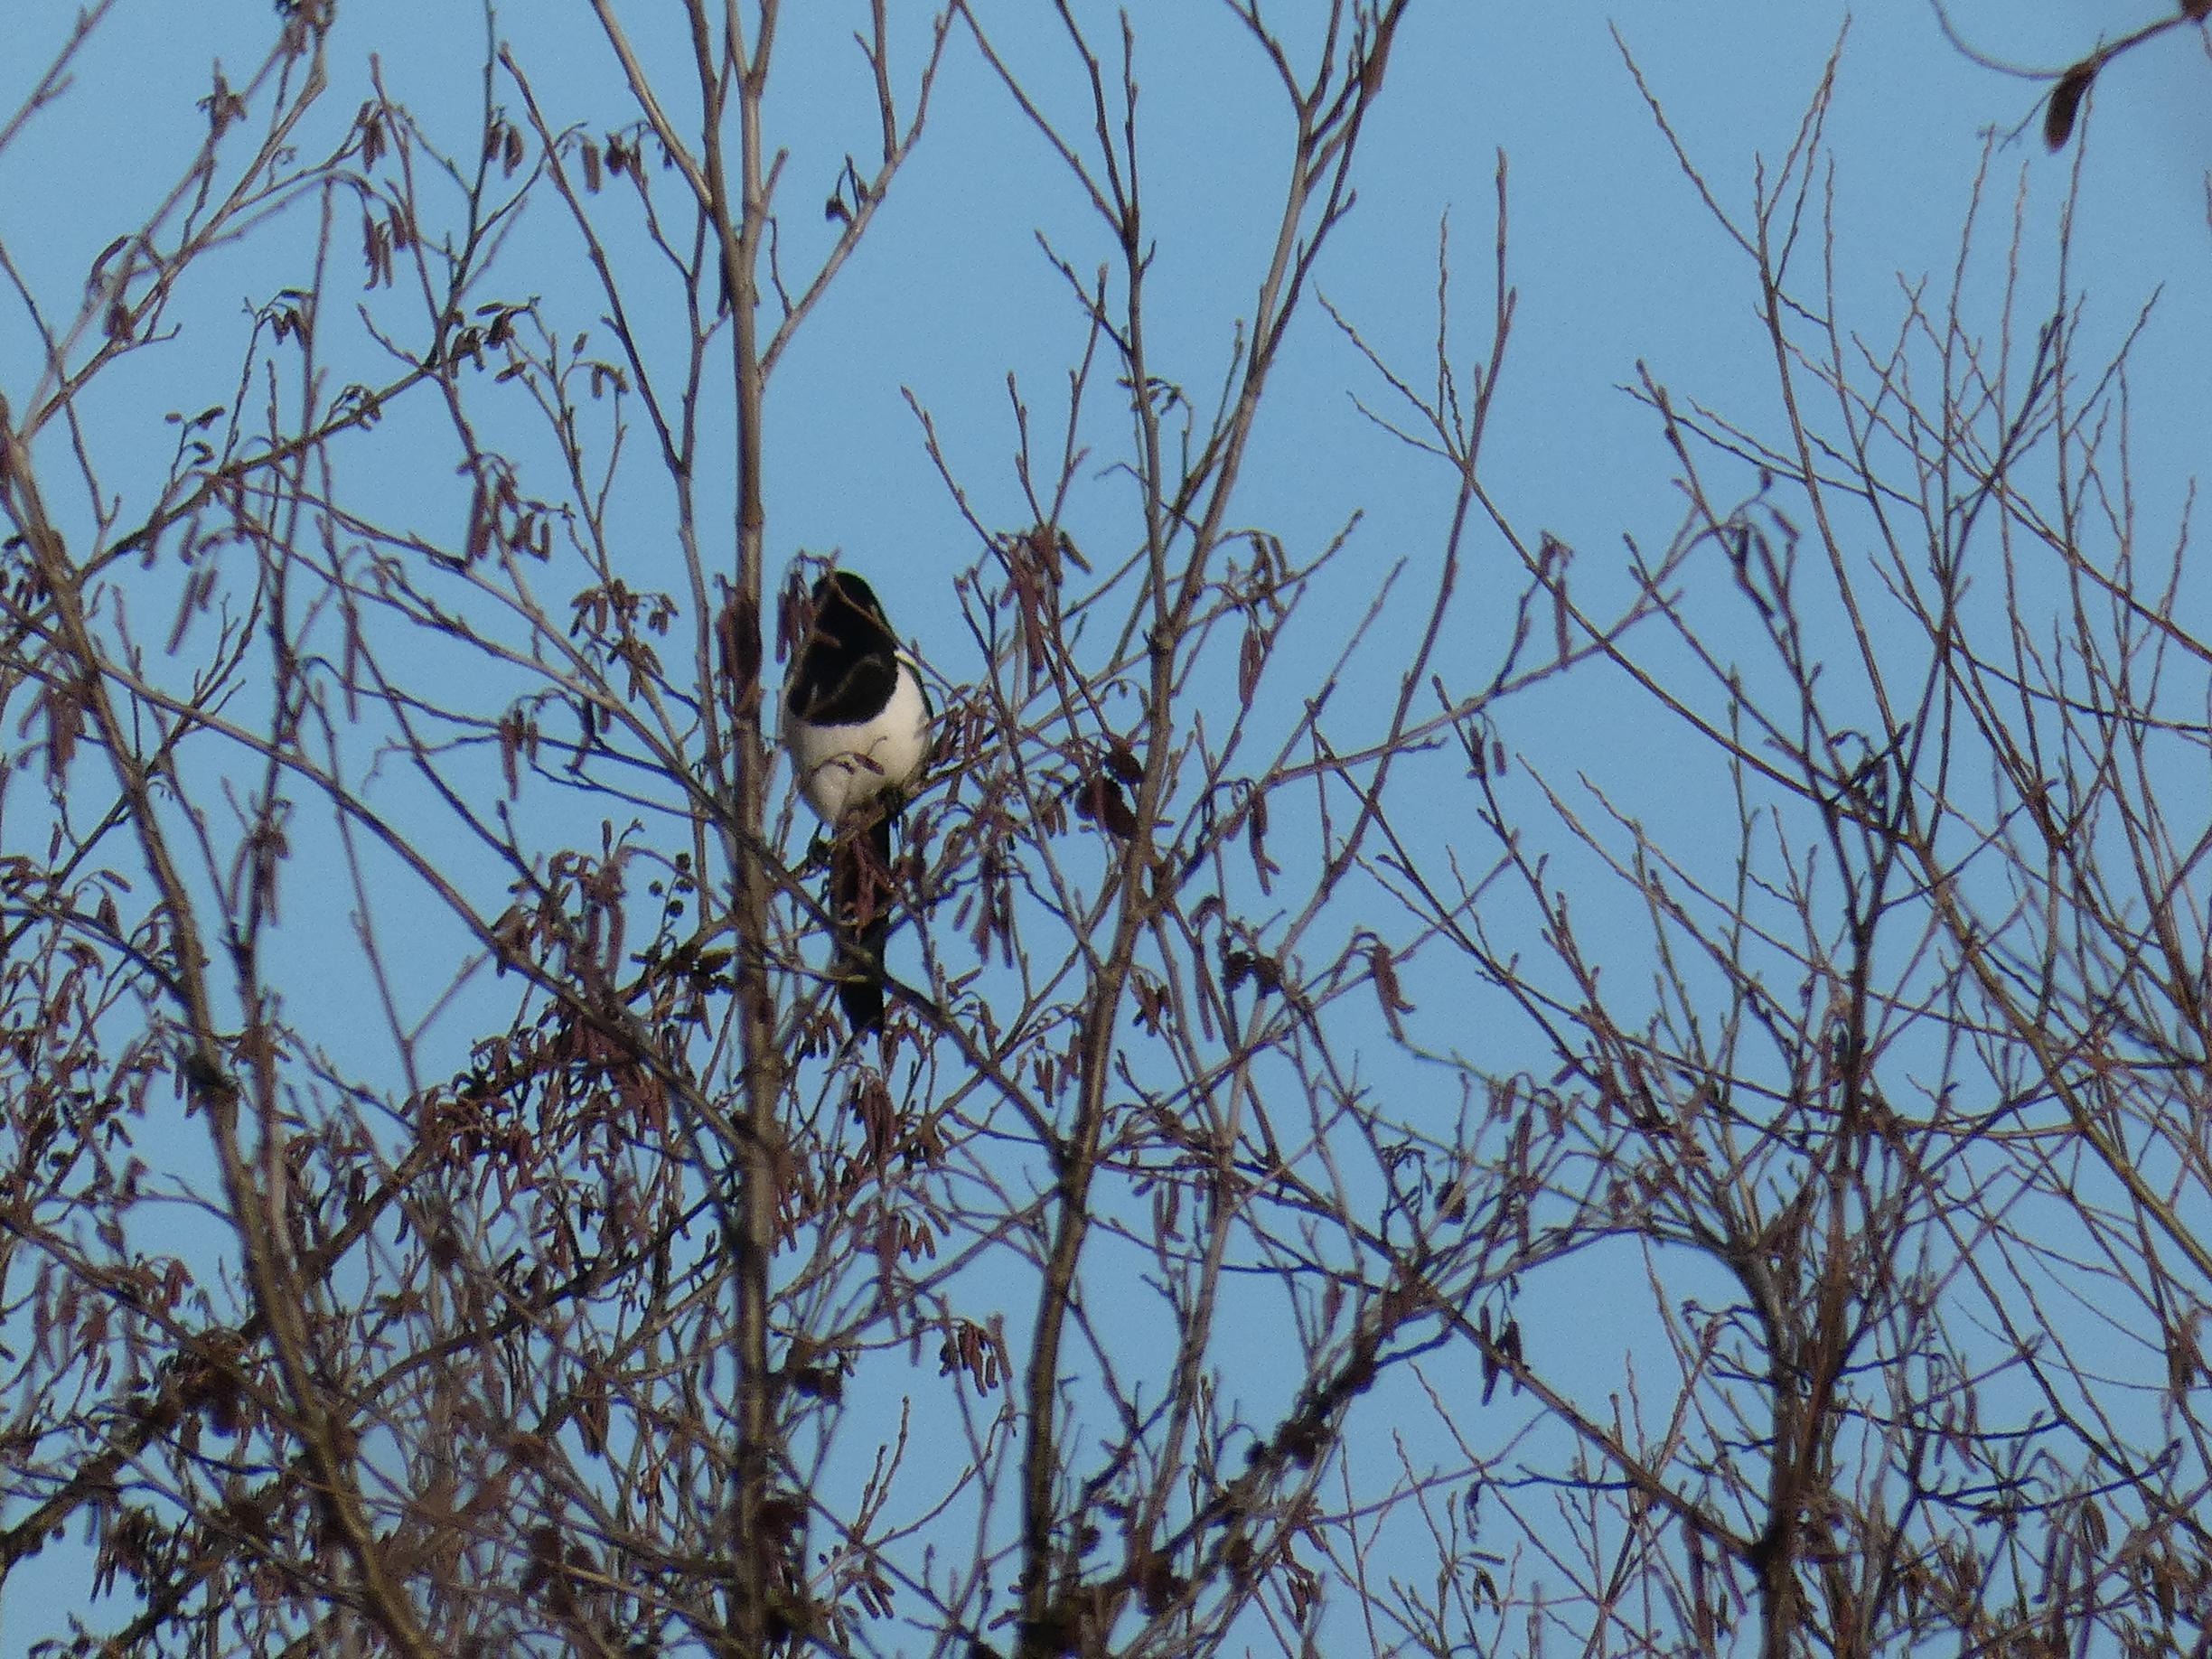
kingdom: Animalia
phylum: Chordata
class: Aves
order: Passeriformes
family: Corvidae
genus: Pica
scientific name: Pica pica
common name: Husskade
